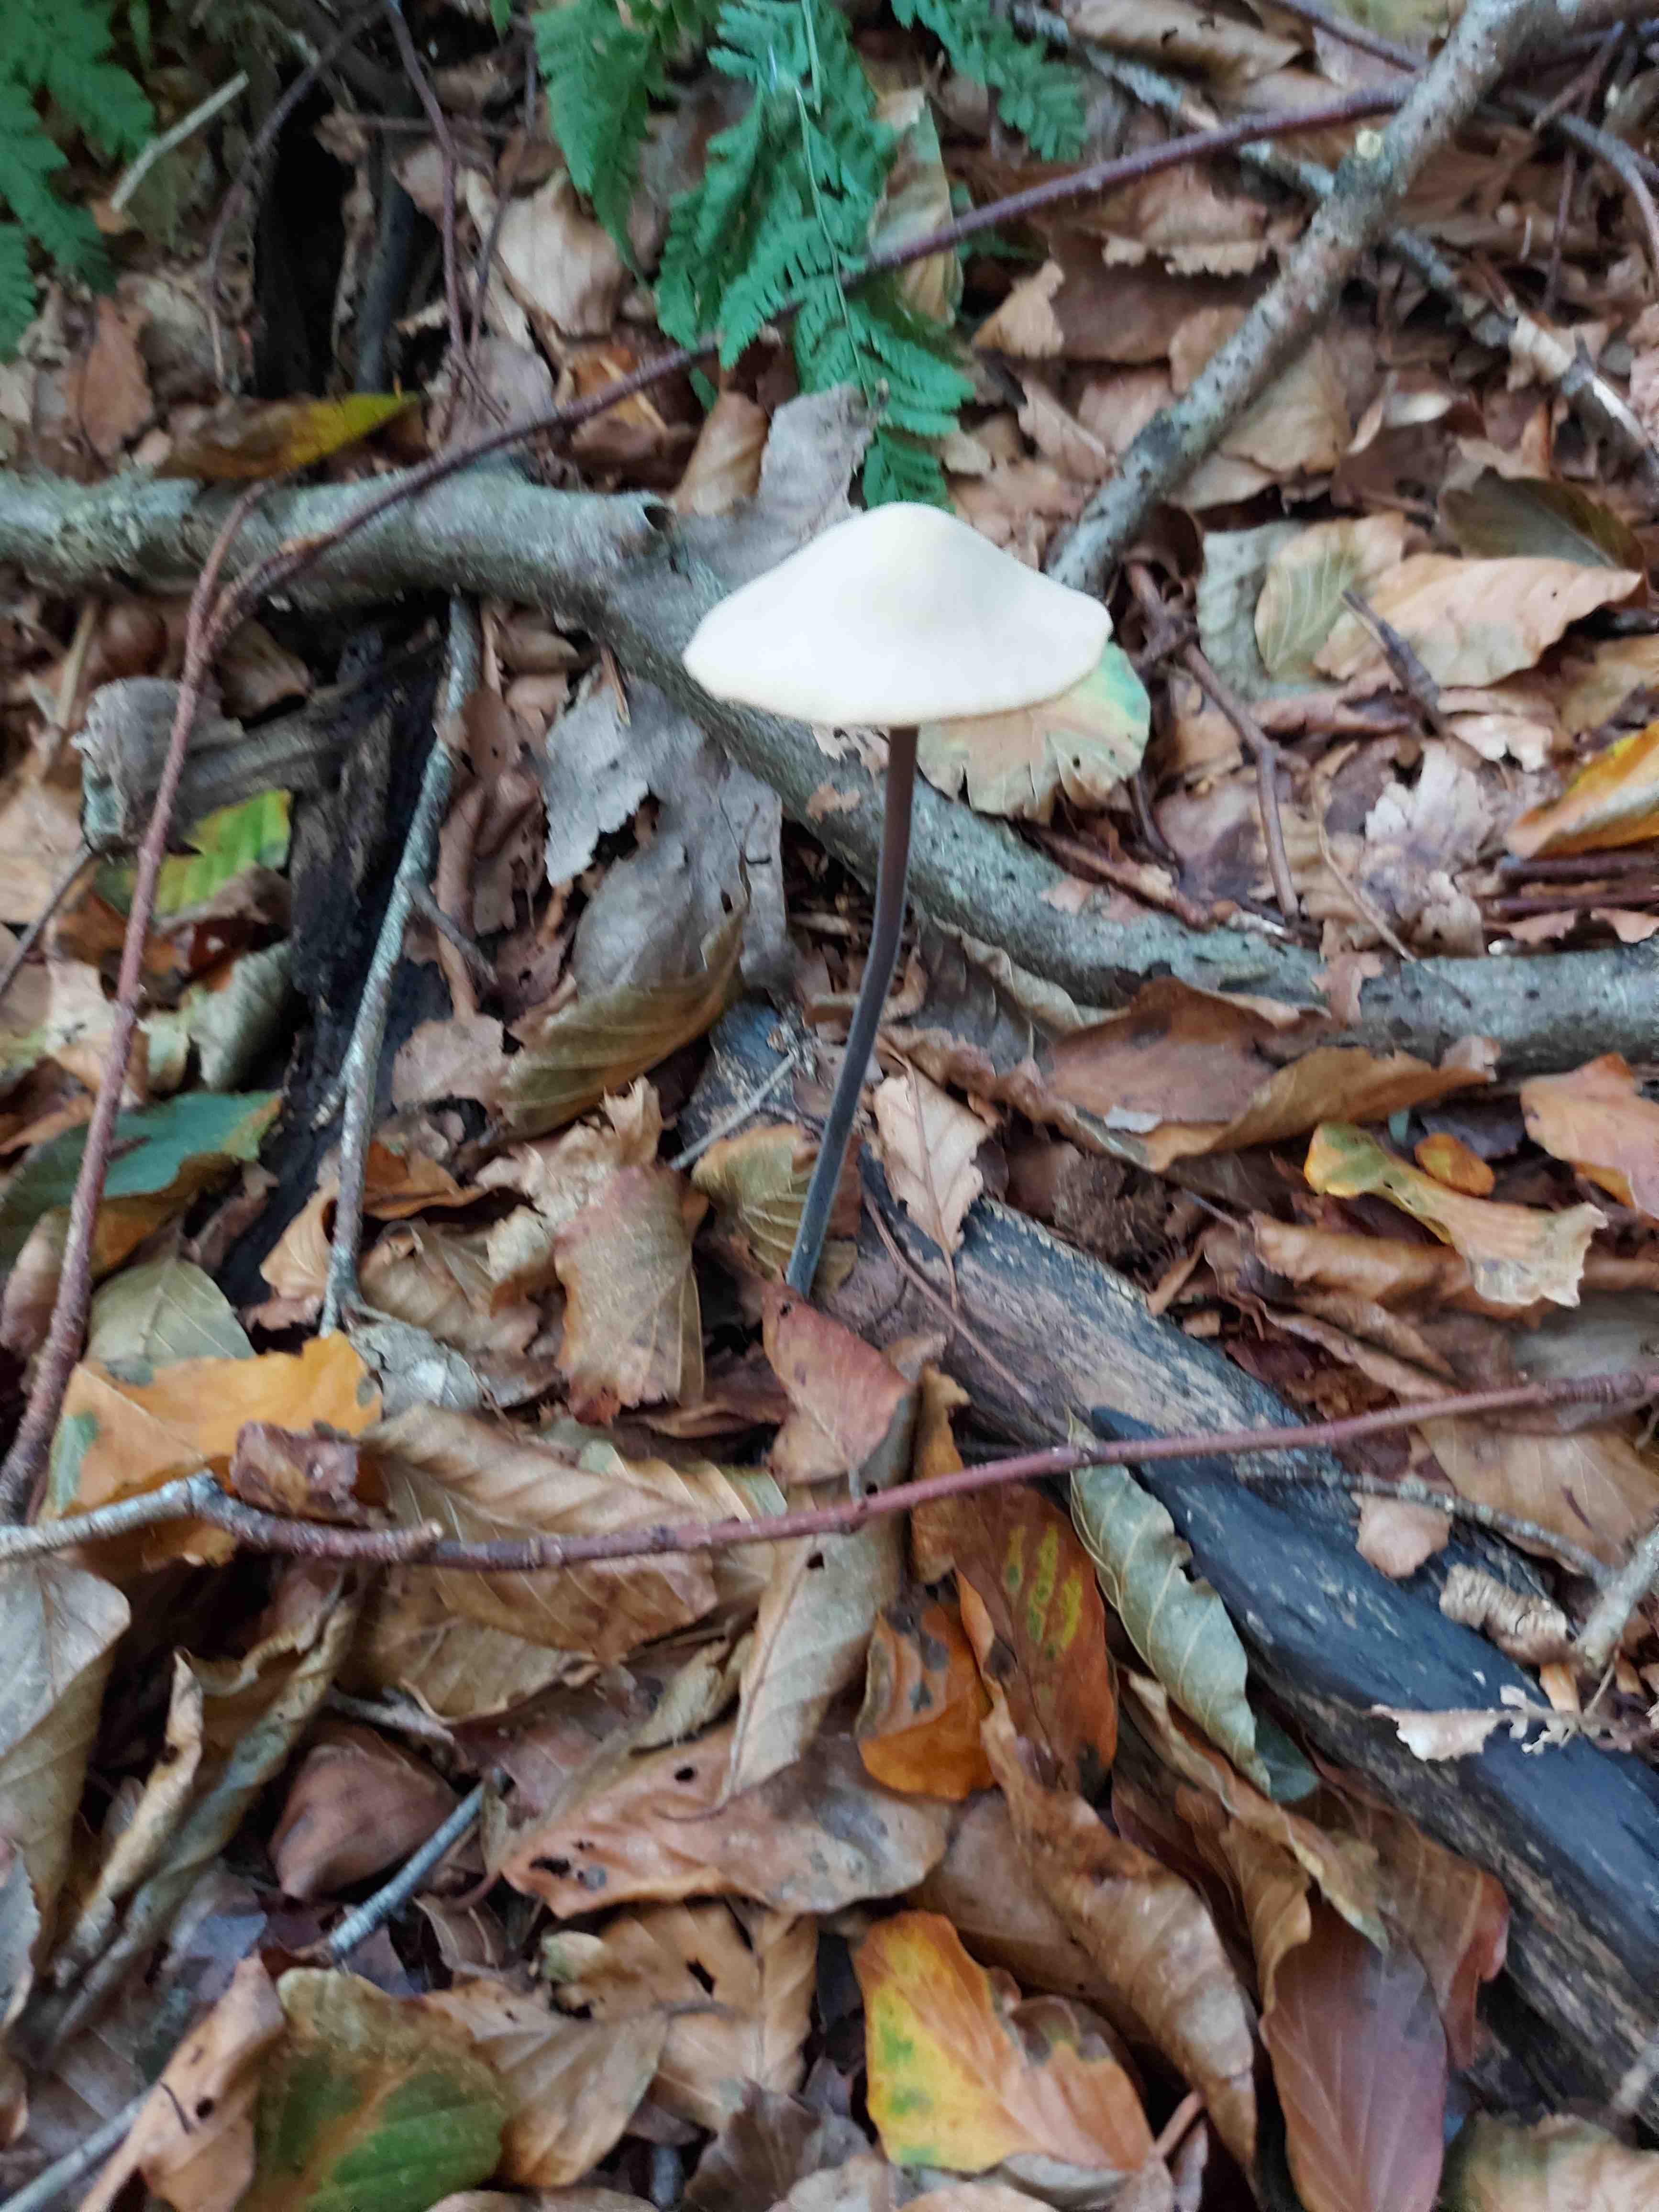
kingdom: Fungi
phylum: Basidiomycota
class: Agaricomycetes
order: Agaricales
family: Omphalotaceae
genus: Mycetinis
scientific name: Mycetinis alliaceus
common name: stor løghat
